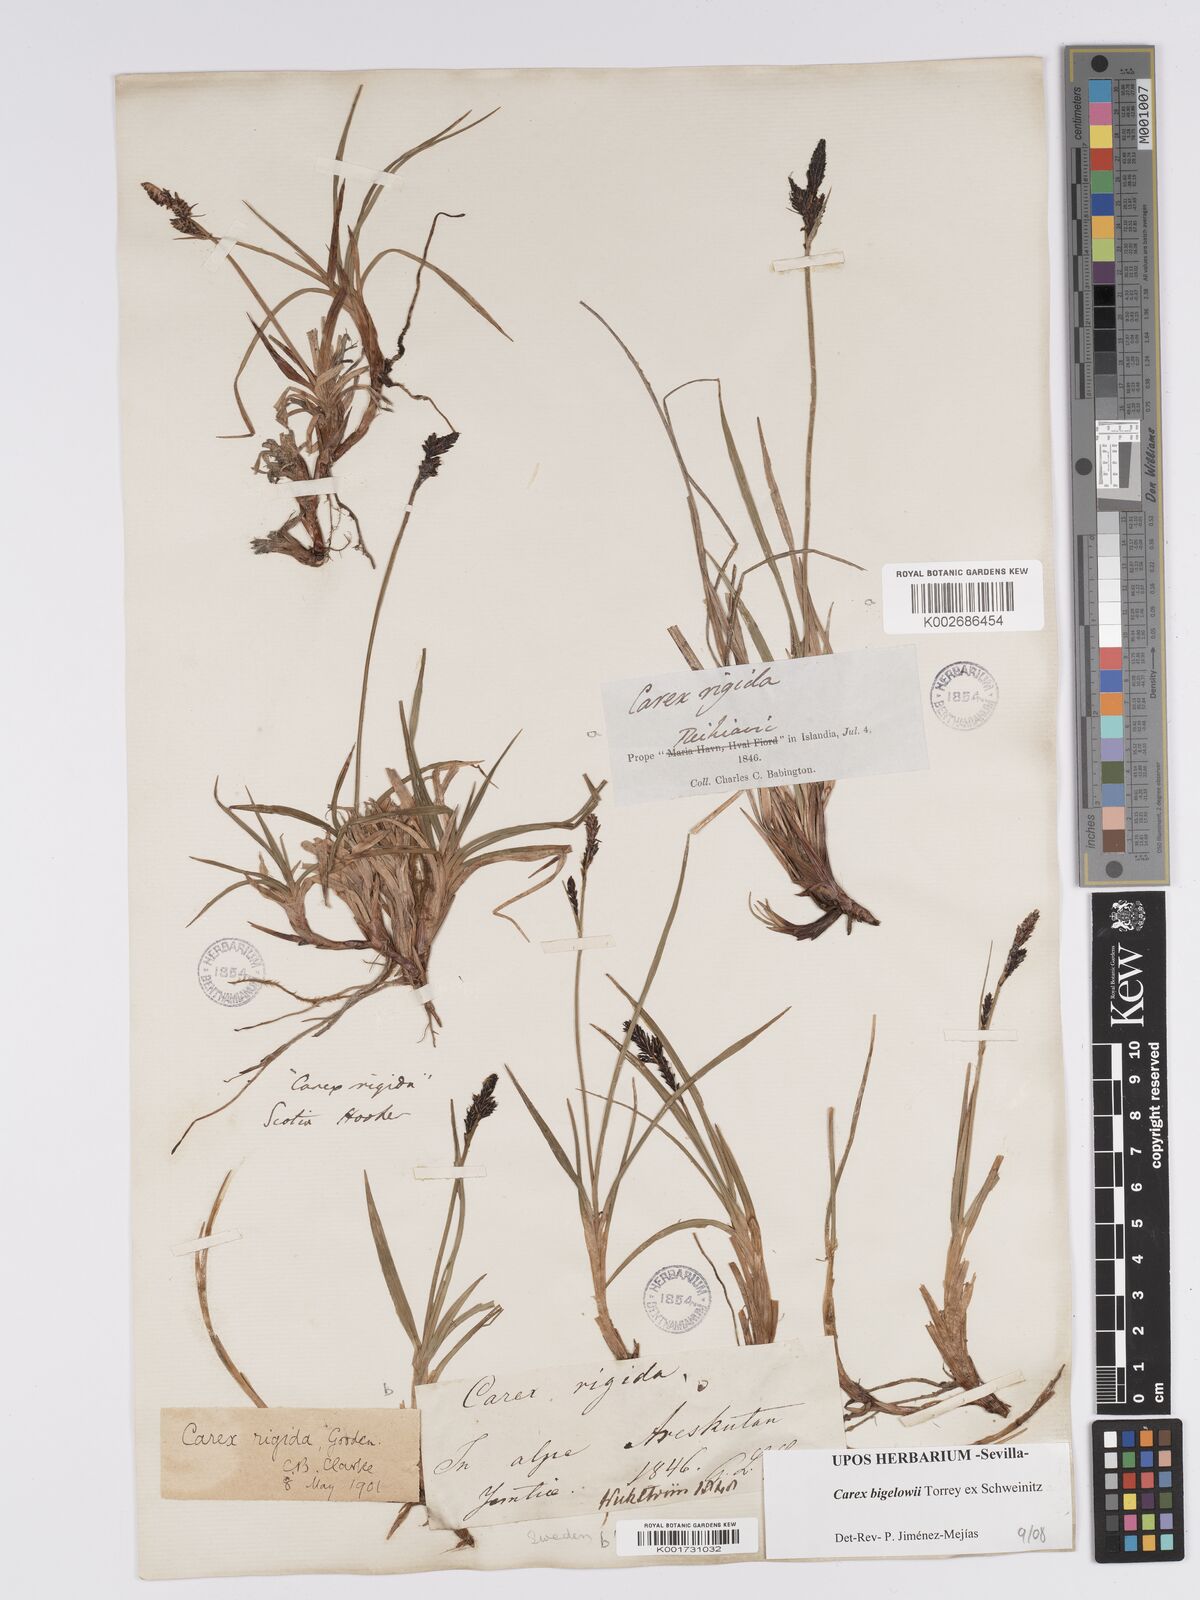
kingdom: Plantae
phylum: Tracheophyta
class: Liliopsida
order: Poales
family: Cyperaceae
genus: Carex
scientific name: Carex bigelowii
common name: Stiff sedge
